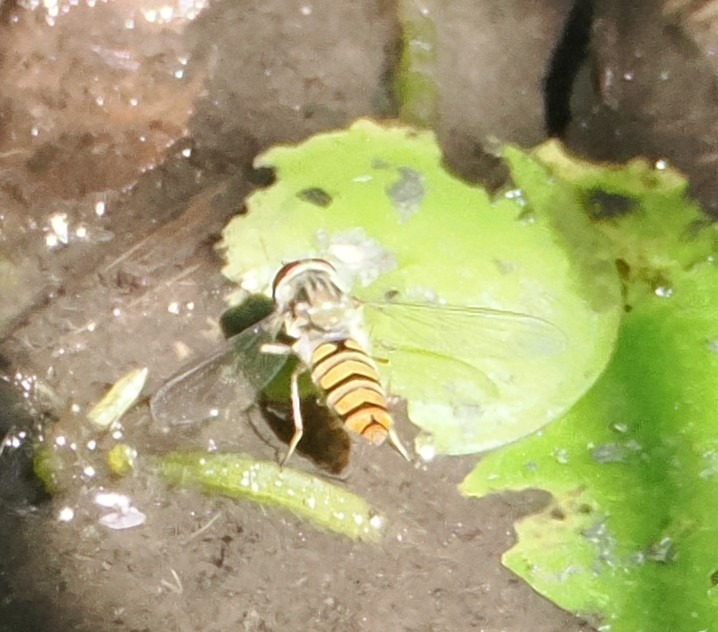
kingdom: Animalia
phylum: Arthropoda
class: Insecta
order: Diptera
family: Syrphidae
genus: Episyrphus
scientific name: Episyrphus balteatus
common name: Dobbeltbåndet svirreflue
